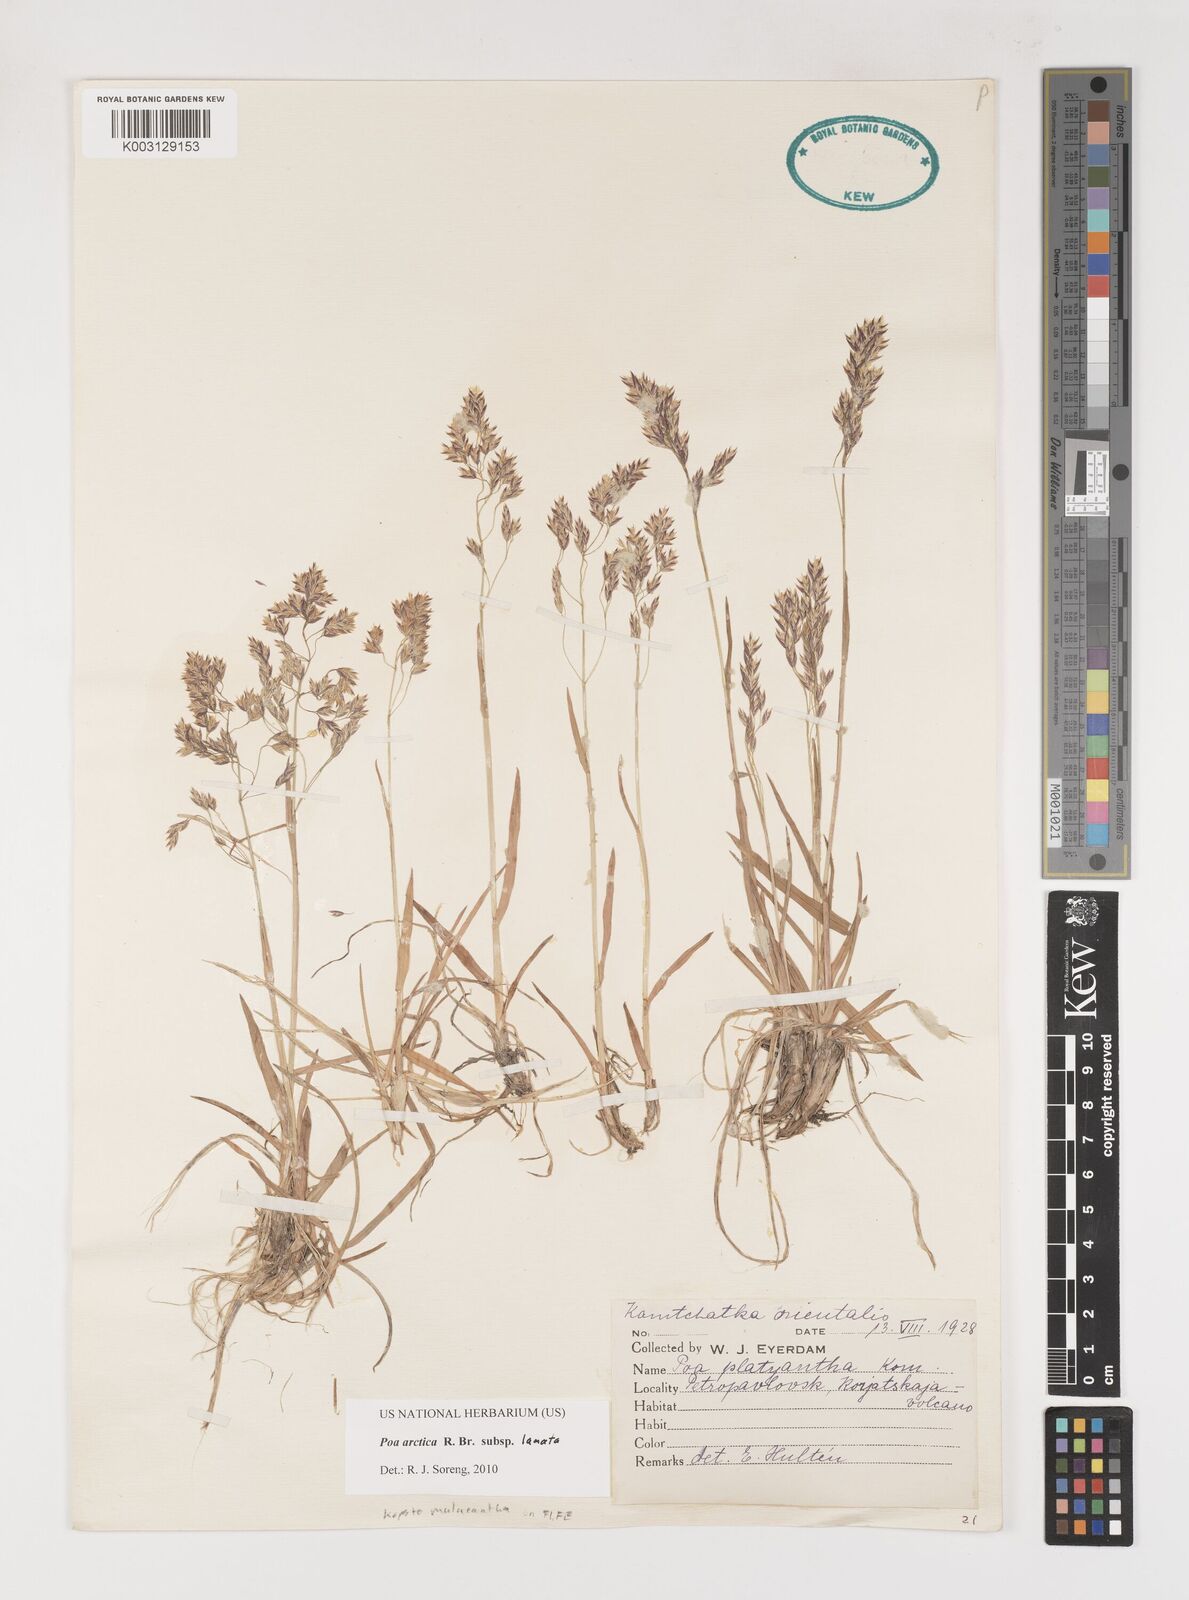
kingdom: Plantae
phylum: Tracheophyta
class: Liliopsida
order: Poales
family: Poaceae
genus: Poa
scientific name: Poa arctica
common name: Arctic bluegrass
